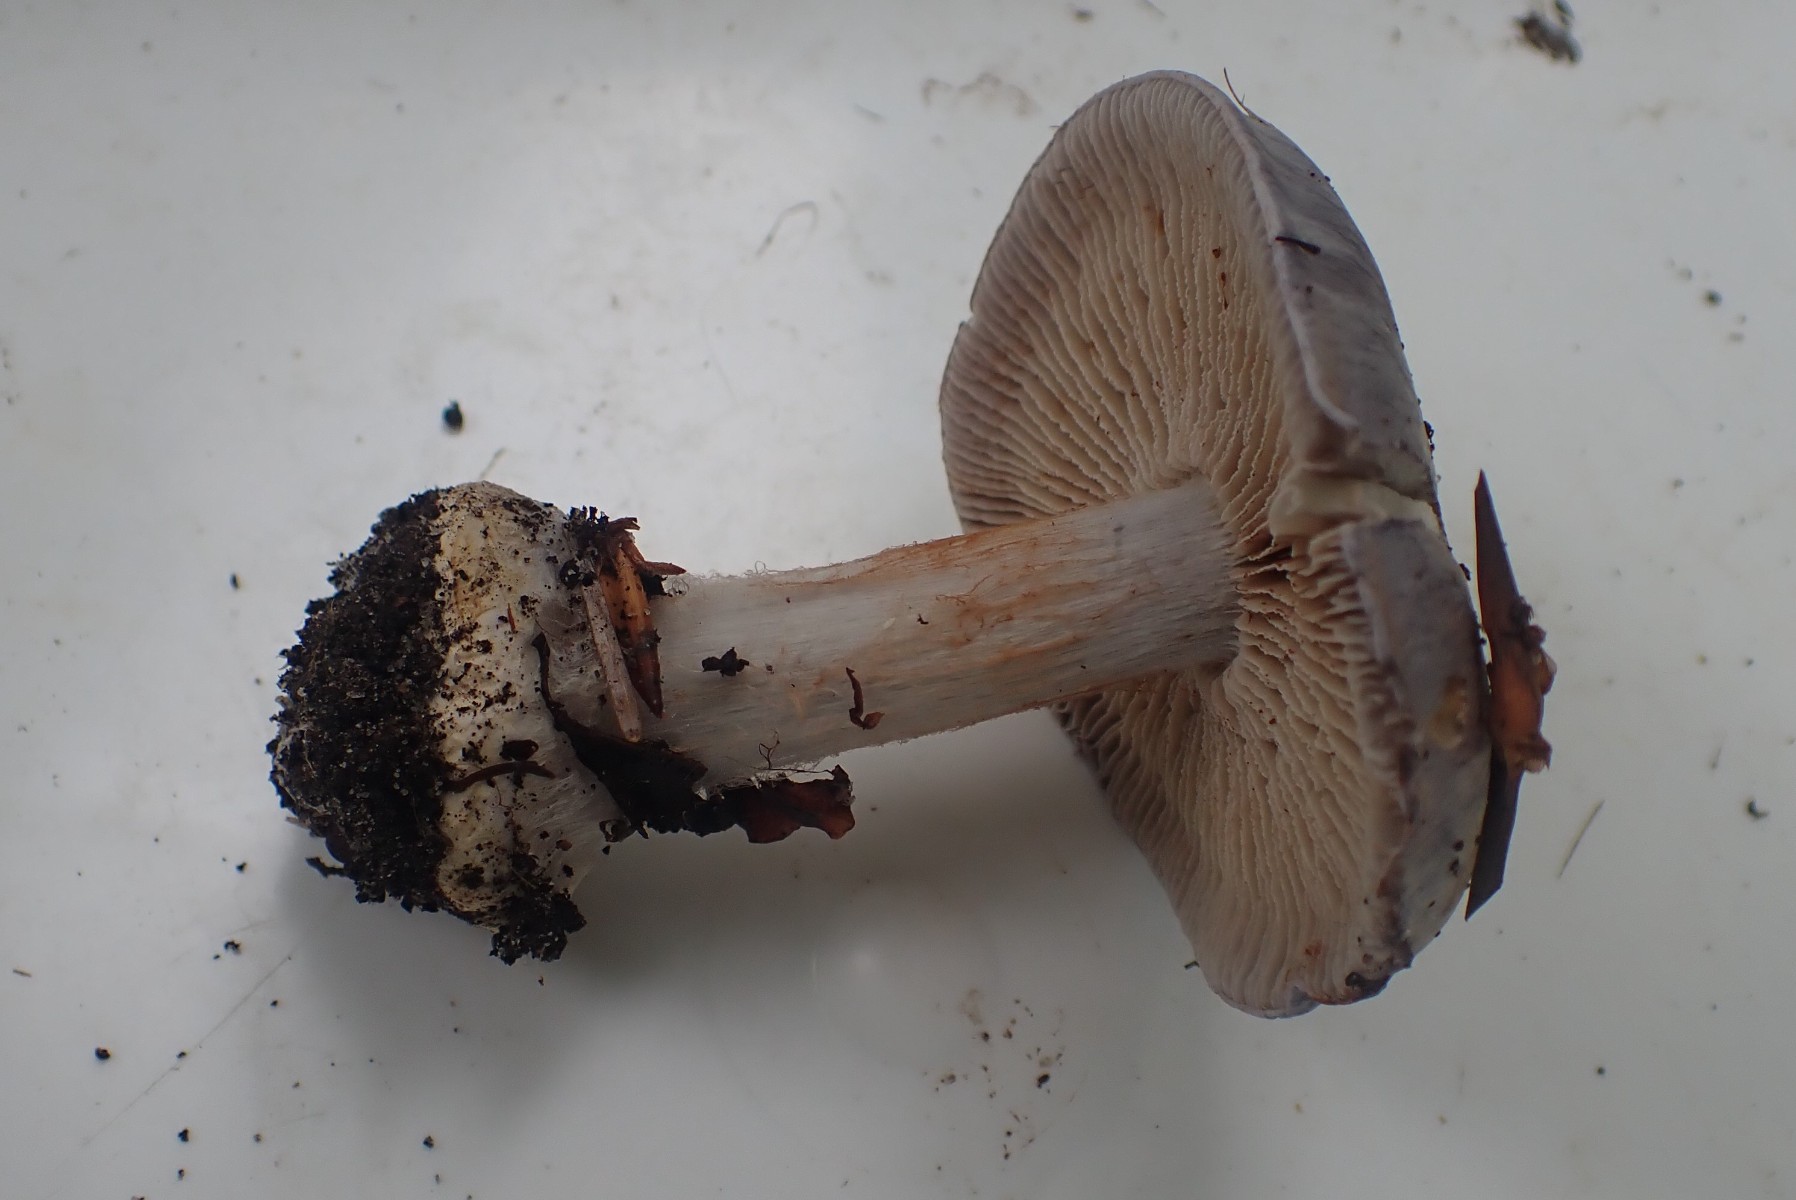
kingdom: Fungi
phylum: Basidiomycota
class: Agaricomycetes
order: Agaricales
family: Cortinariaceae
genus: Cortinarius
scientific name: Cortinarius caerulescens
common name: blåkødet slørhat
